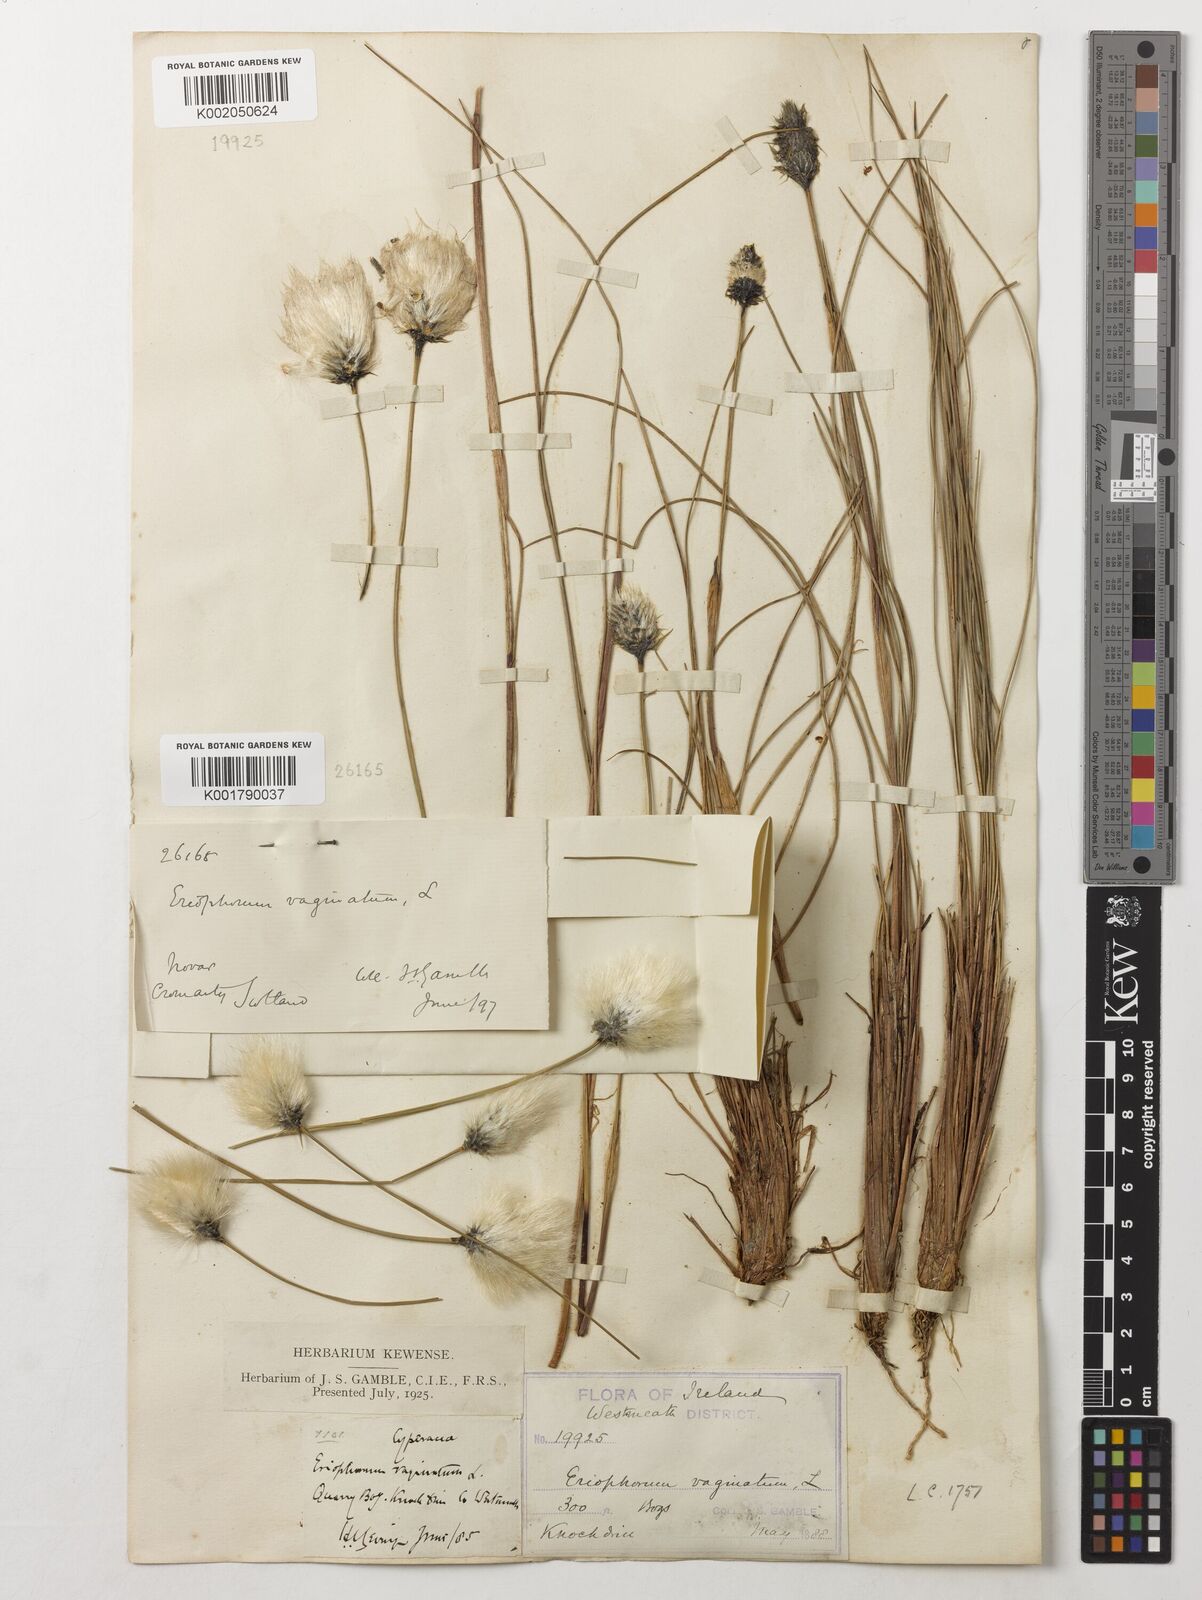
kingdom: Plantae
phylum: Tracheophyta
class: Liliopsida
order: Poales
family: Cyperaceae
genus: Eriophorum
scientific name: Eriophorum vaginatum
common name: Hare's-tail cottongrass
